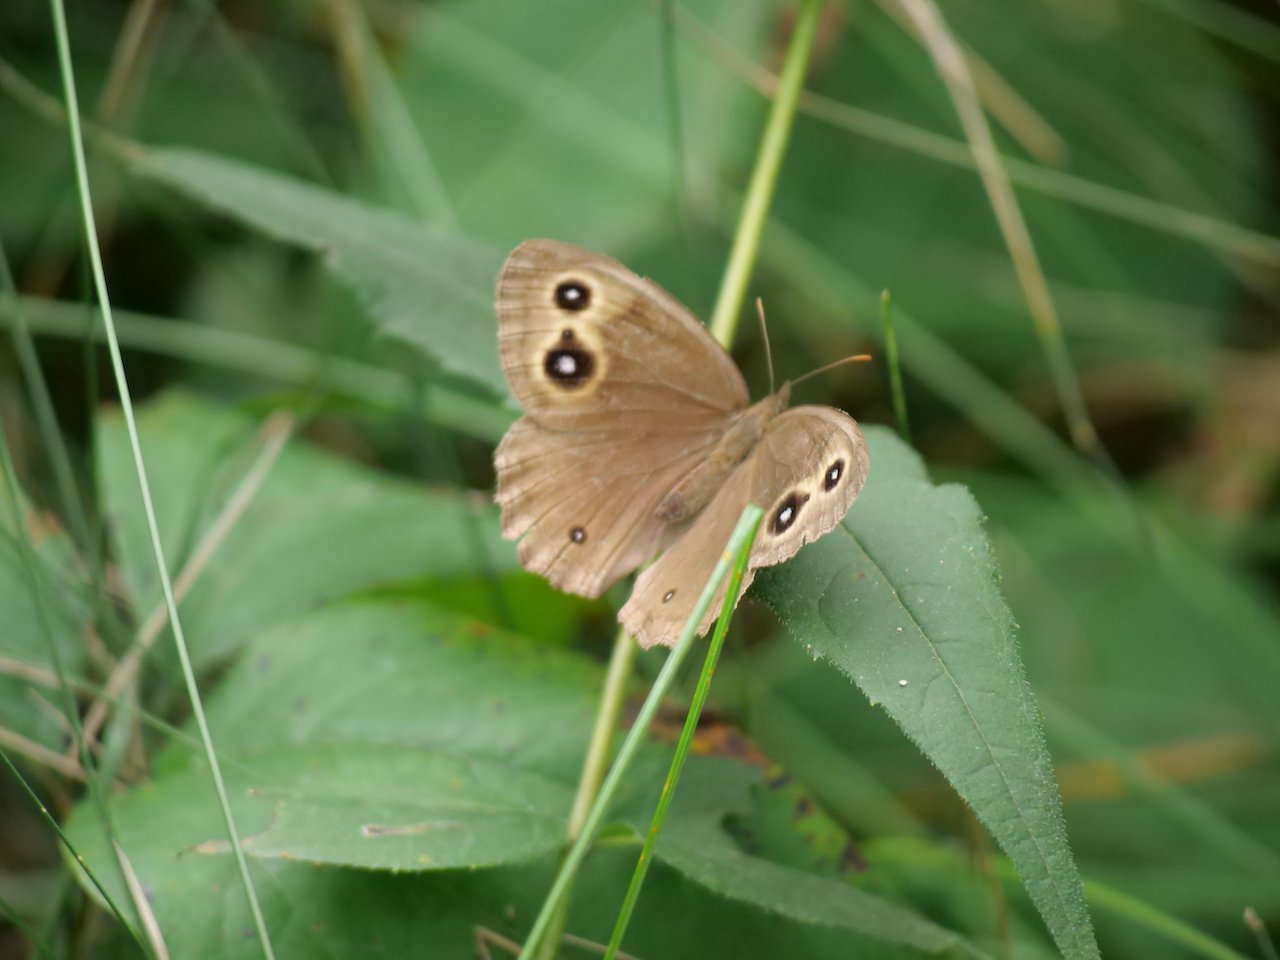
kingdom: Animalia
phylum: Arthropoda
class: Insecta
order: Lepidoptera
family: Nymphalidae
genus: Cercyonis
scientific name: Cercyonis pegala
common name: Common Wood-Nymph
